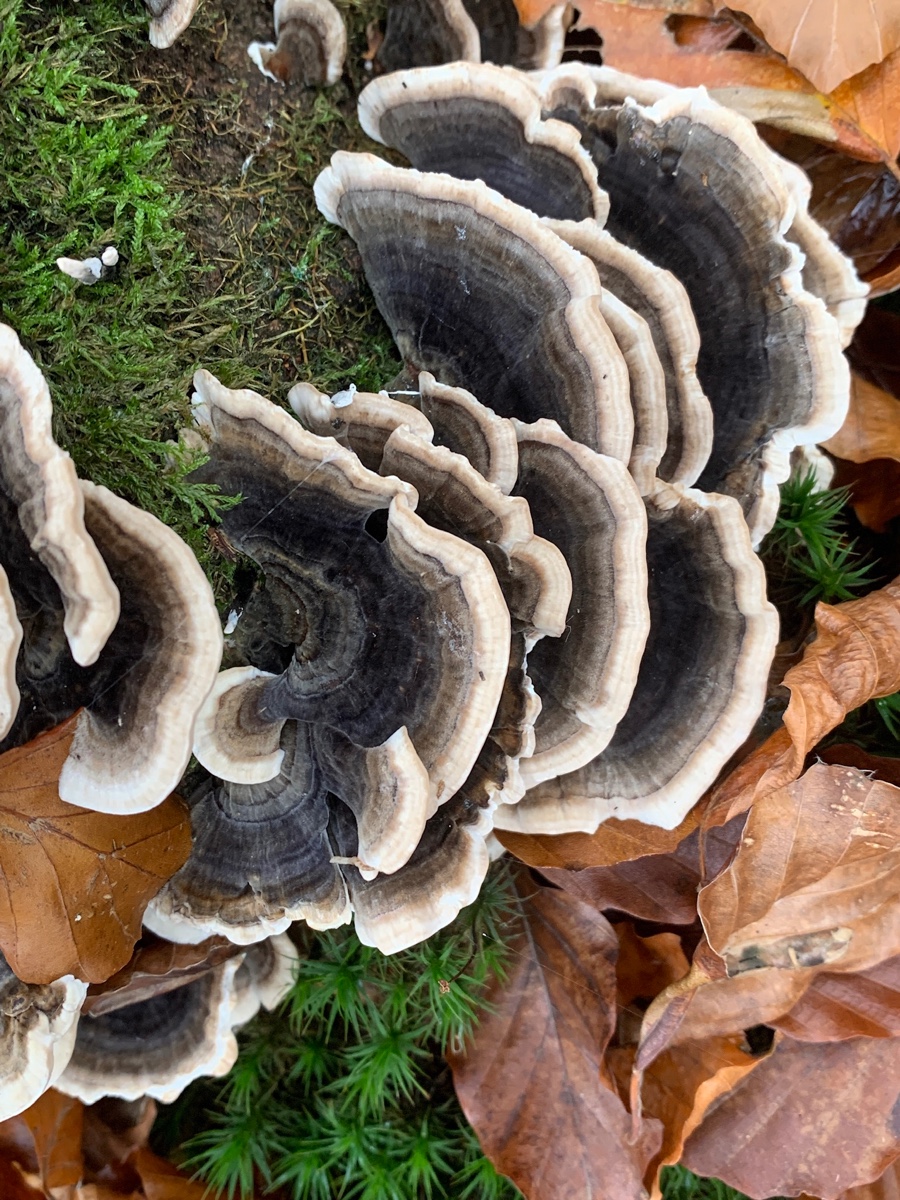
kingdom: Fungi
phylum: Basidiomycota
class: Agaricomycetes
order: Polyporales
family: Polyporaceae
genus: Trametes
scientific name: Trametes versicolor
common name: broget læderporesvamp
